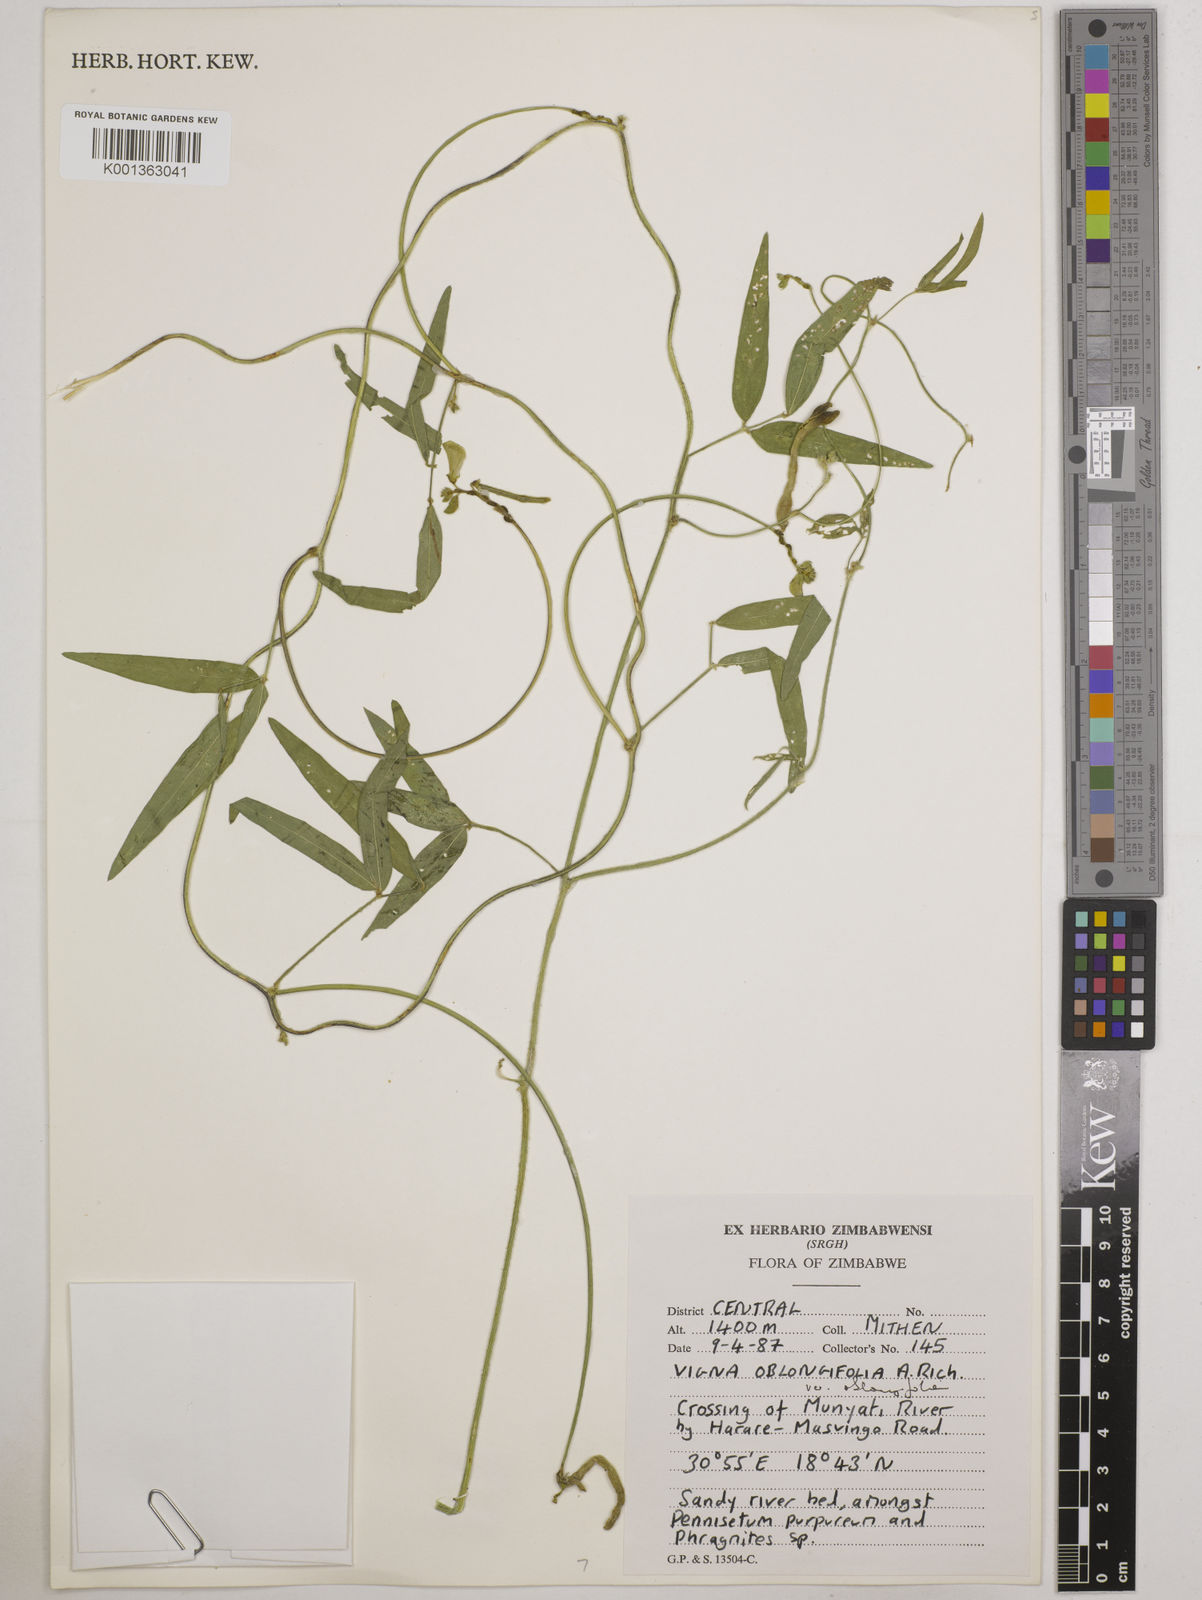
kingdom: Plantae
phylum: Tracheophyta
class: Magnoliopsida
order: Fabales
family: Fabaceae
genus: Vigna
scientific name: Vigna oblongifolia
